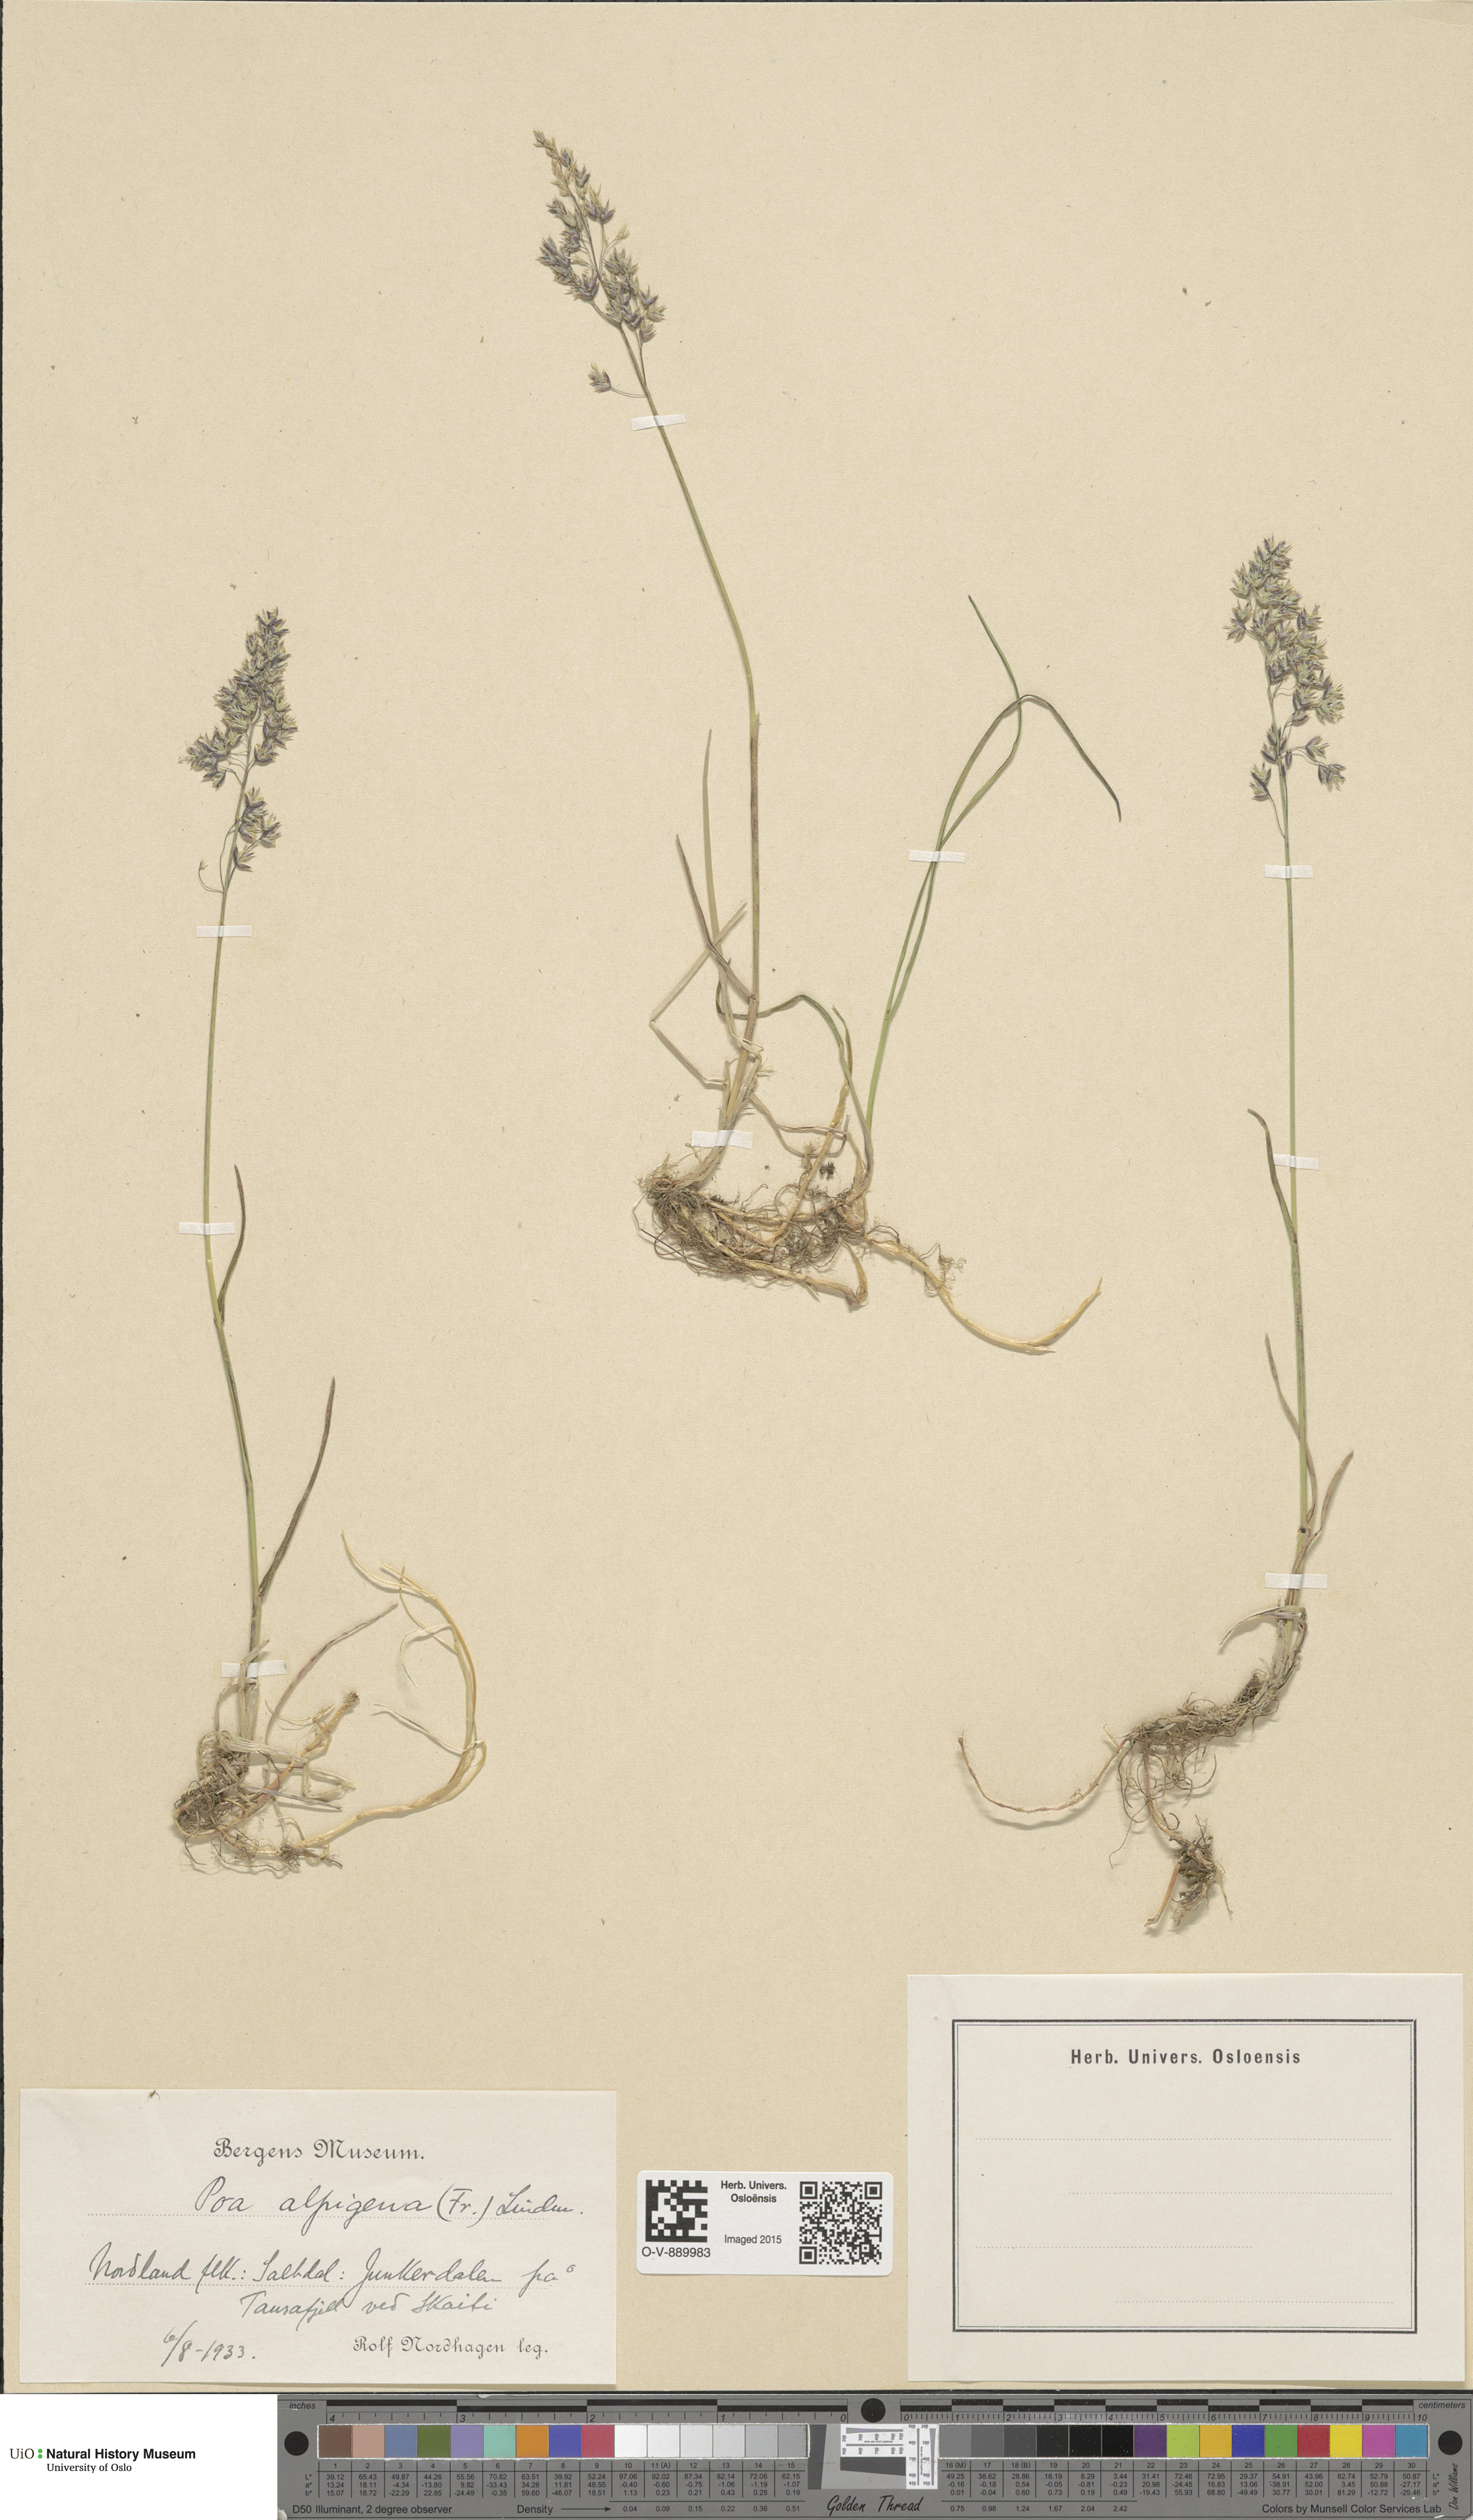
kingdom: Plantae
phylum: Tracheophyta
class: Liliopsida
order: Poales
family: Poaceae
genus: Poa
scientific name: Poa alpigena
